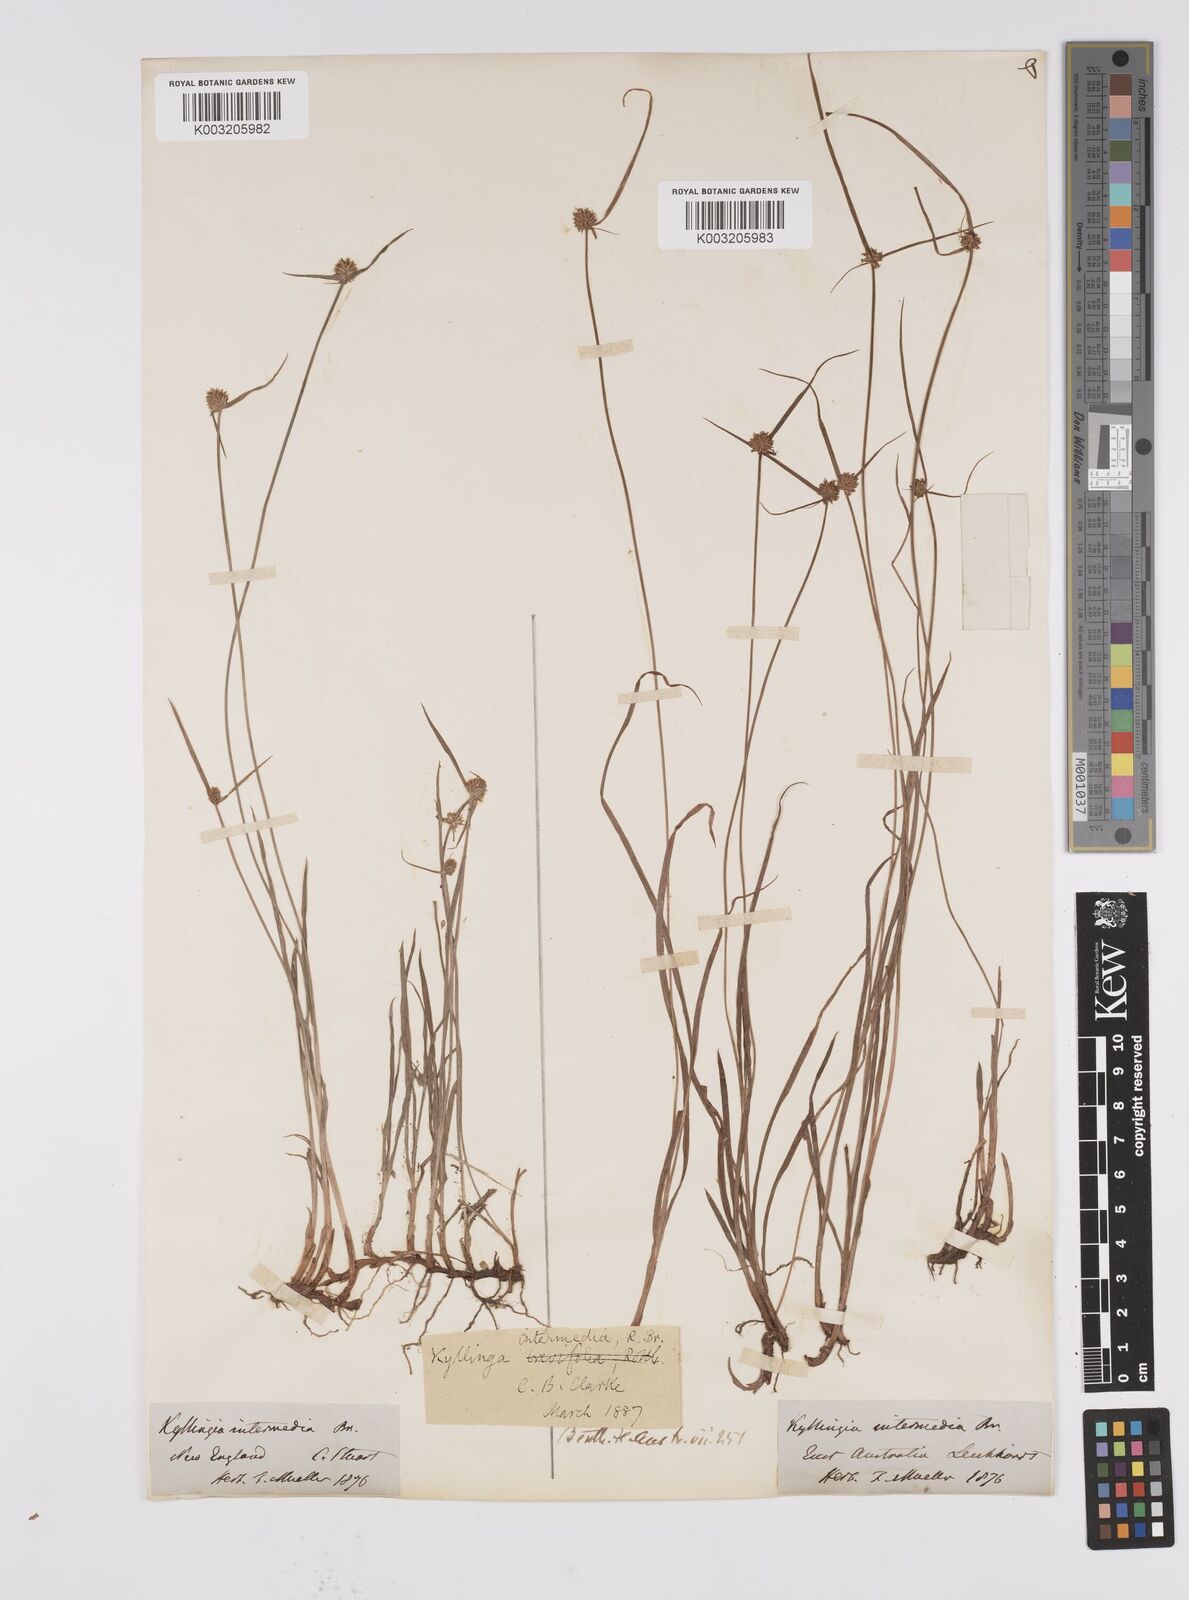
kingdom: Plantae
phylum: Tracheophyta
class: Liliopsida
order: Poales
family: Cyperaceae
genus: Cyperus
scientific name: Cyperus brevifolius
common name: Globe kyllinga
